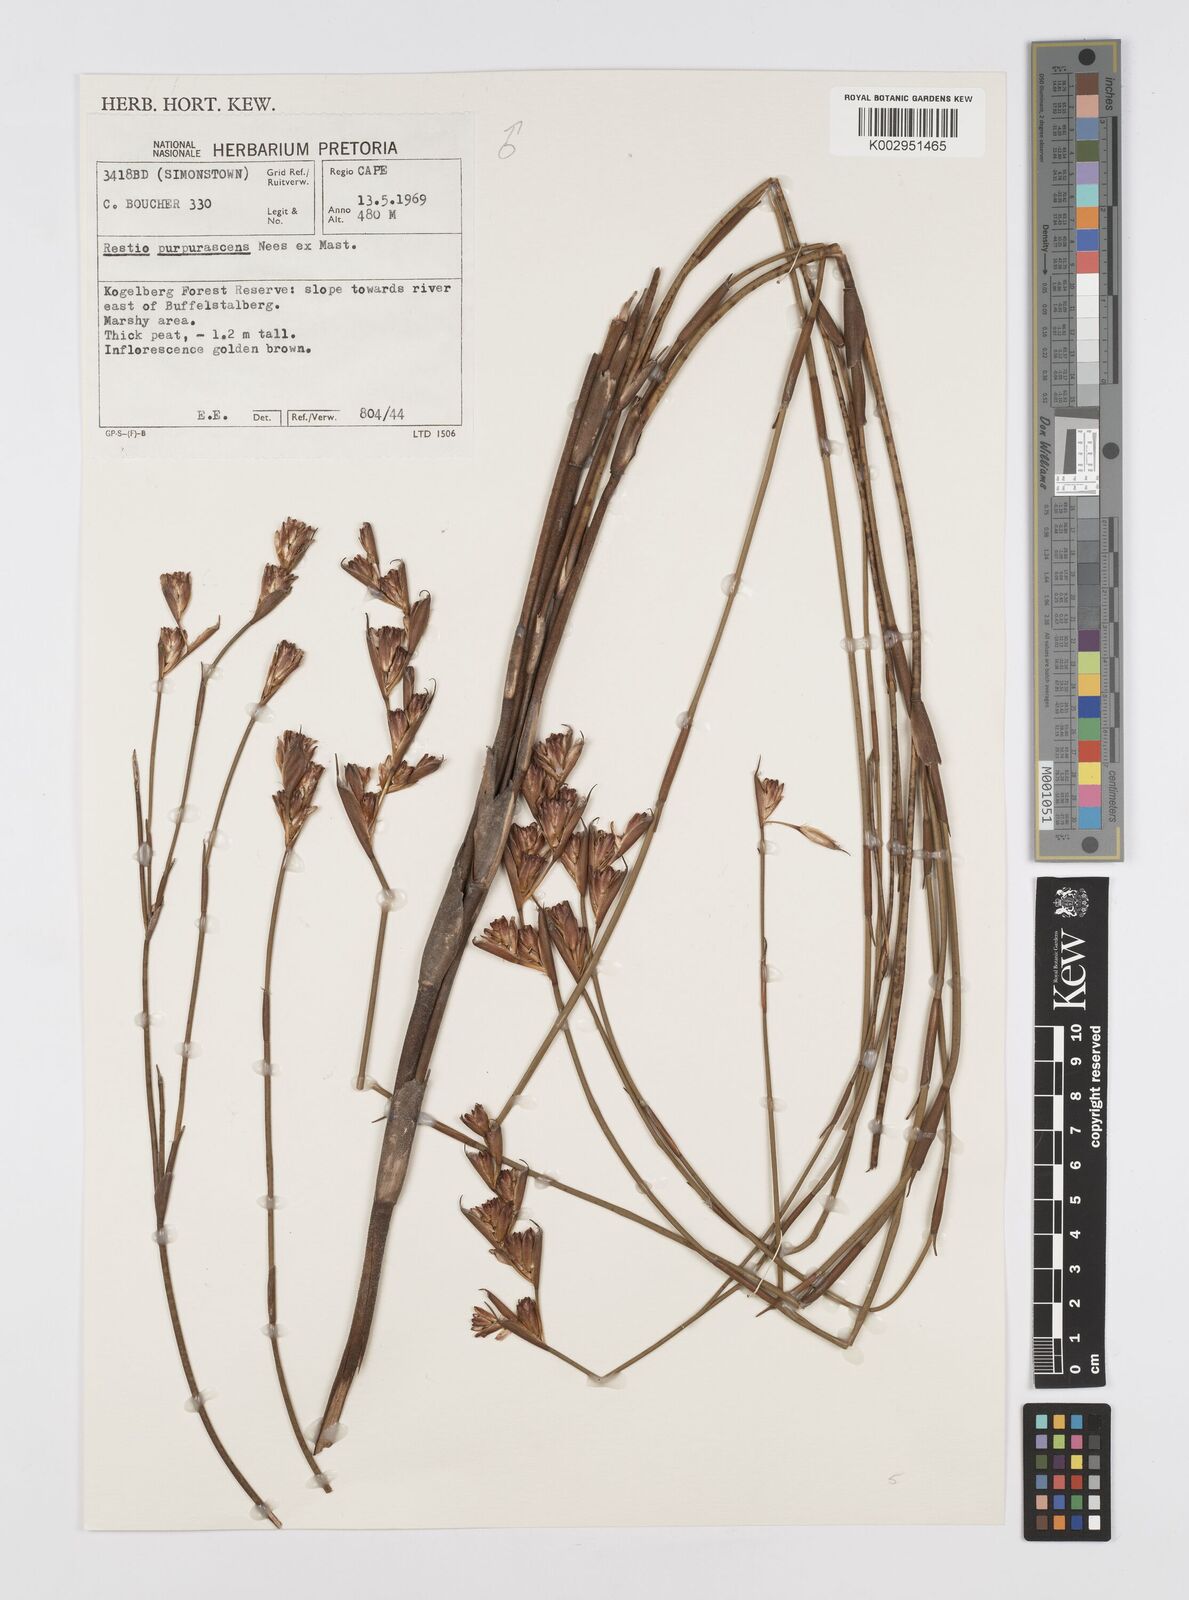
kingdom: Plantae
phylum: Tracheophyta
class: Liliopsida
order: Poales
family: Restionaceae
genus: Restio
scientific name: Restio purpurascens
